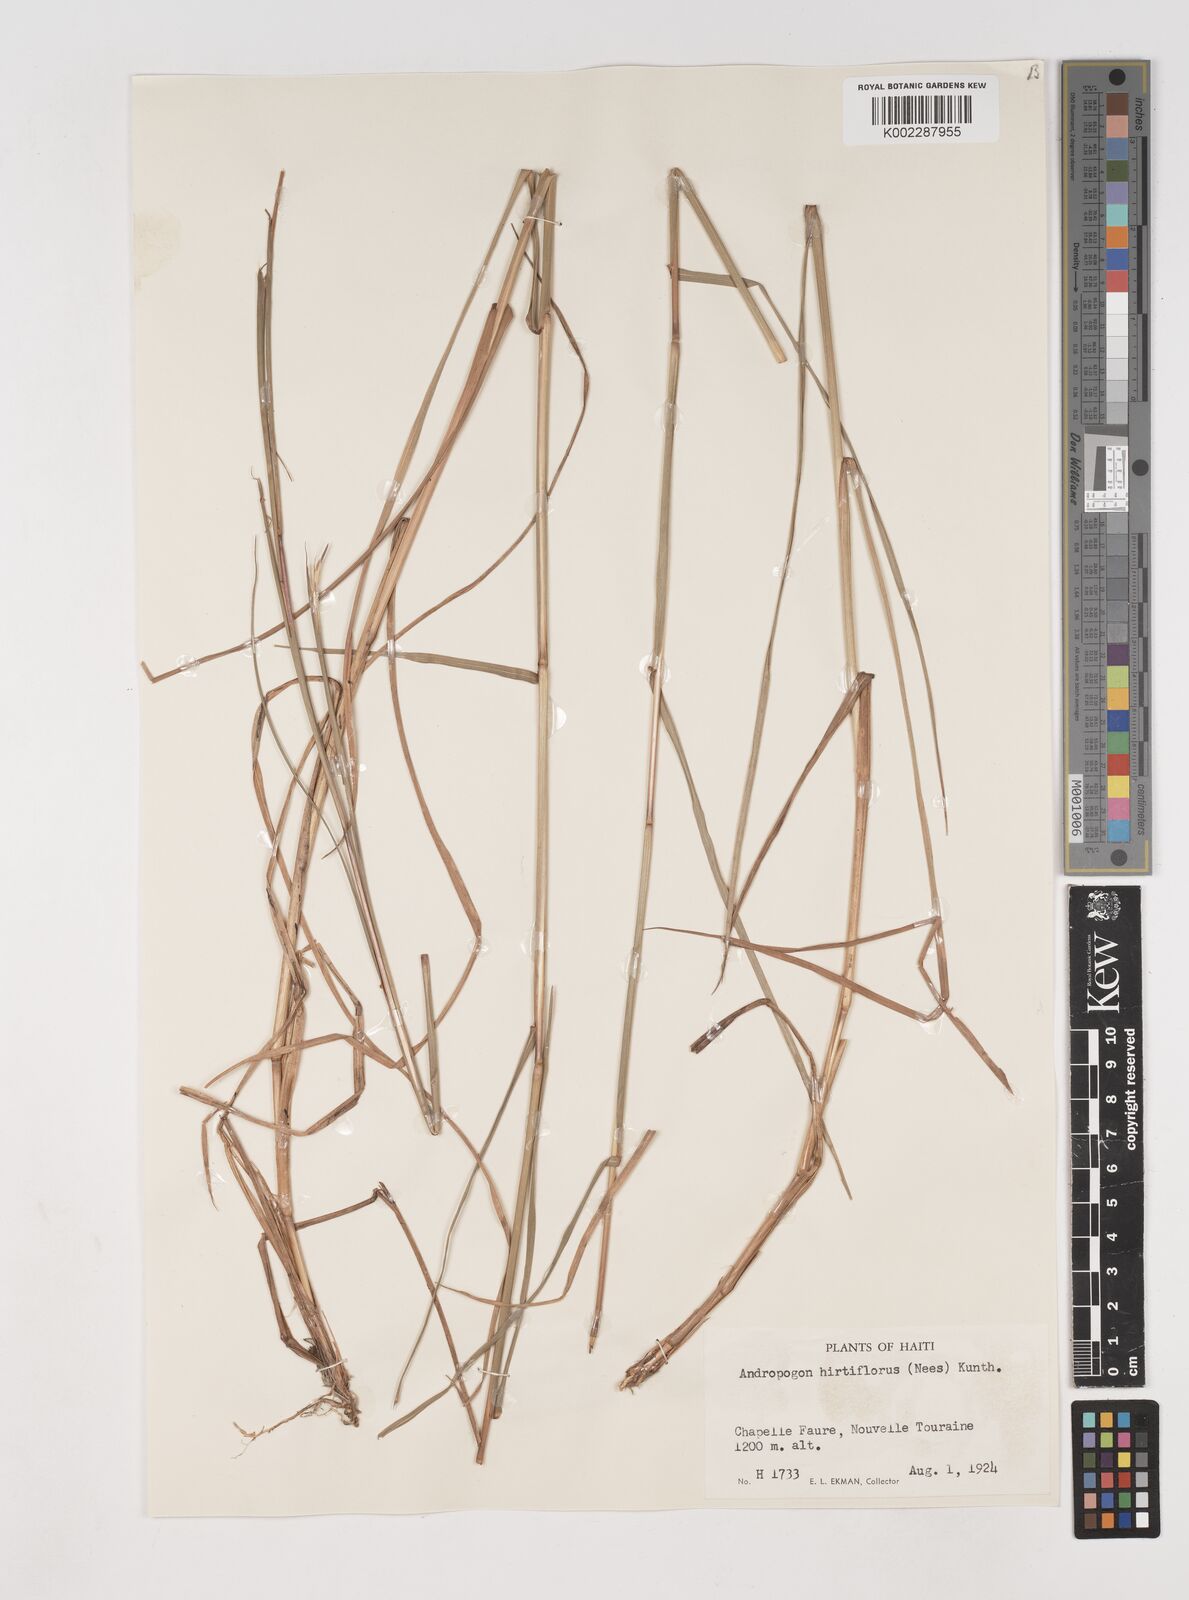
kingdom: Plantae
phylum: Tracheophyta
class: Liliopsida
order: Poales
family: Poaceae
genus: Schizachyrium
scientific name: Schizachyrium sanguineum
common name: Crimson bluestem
